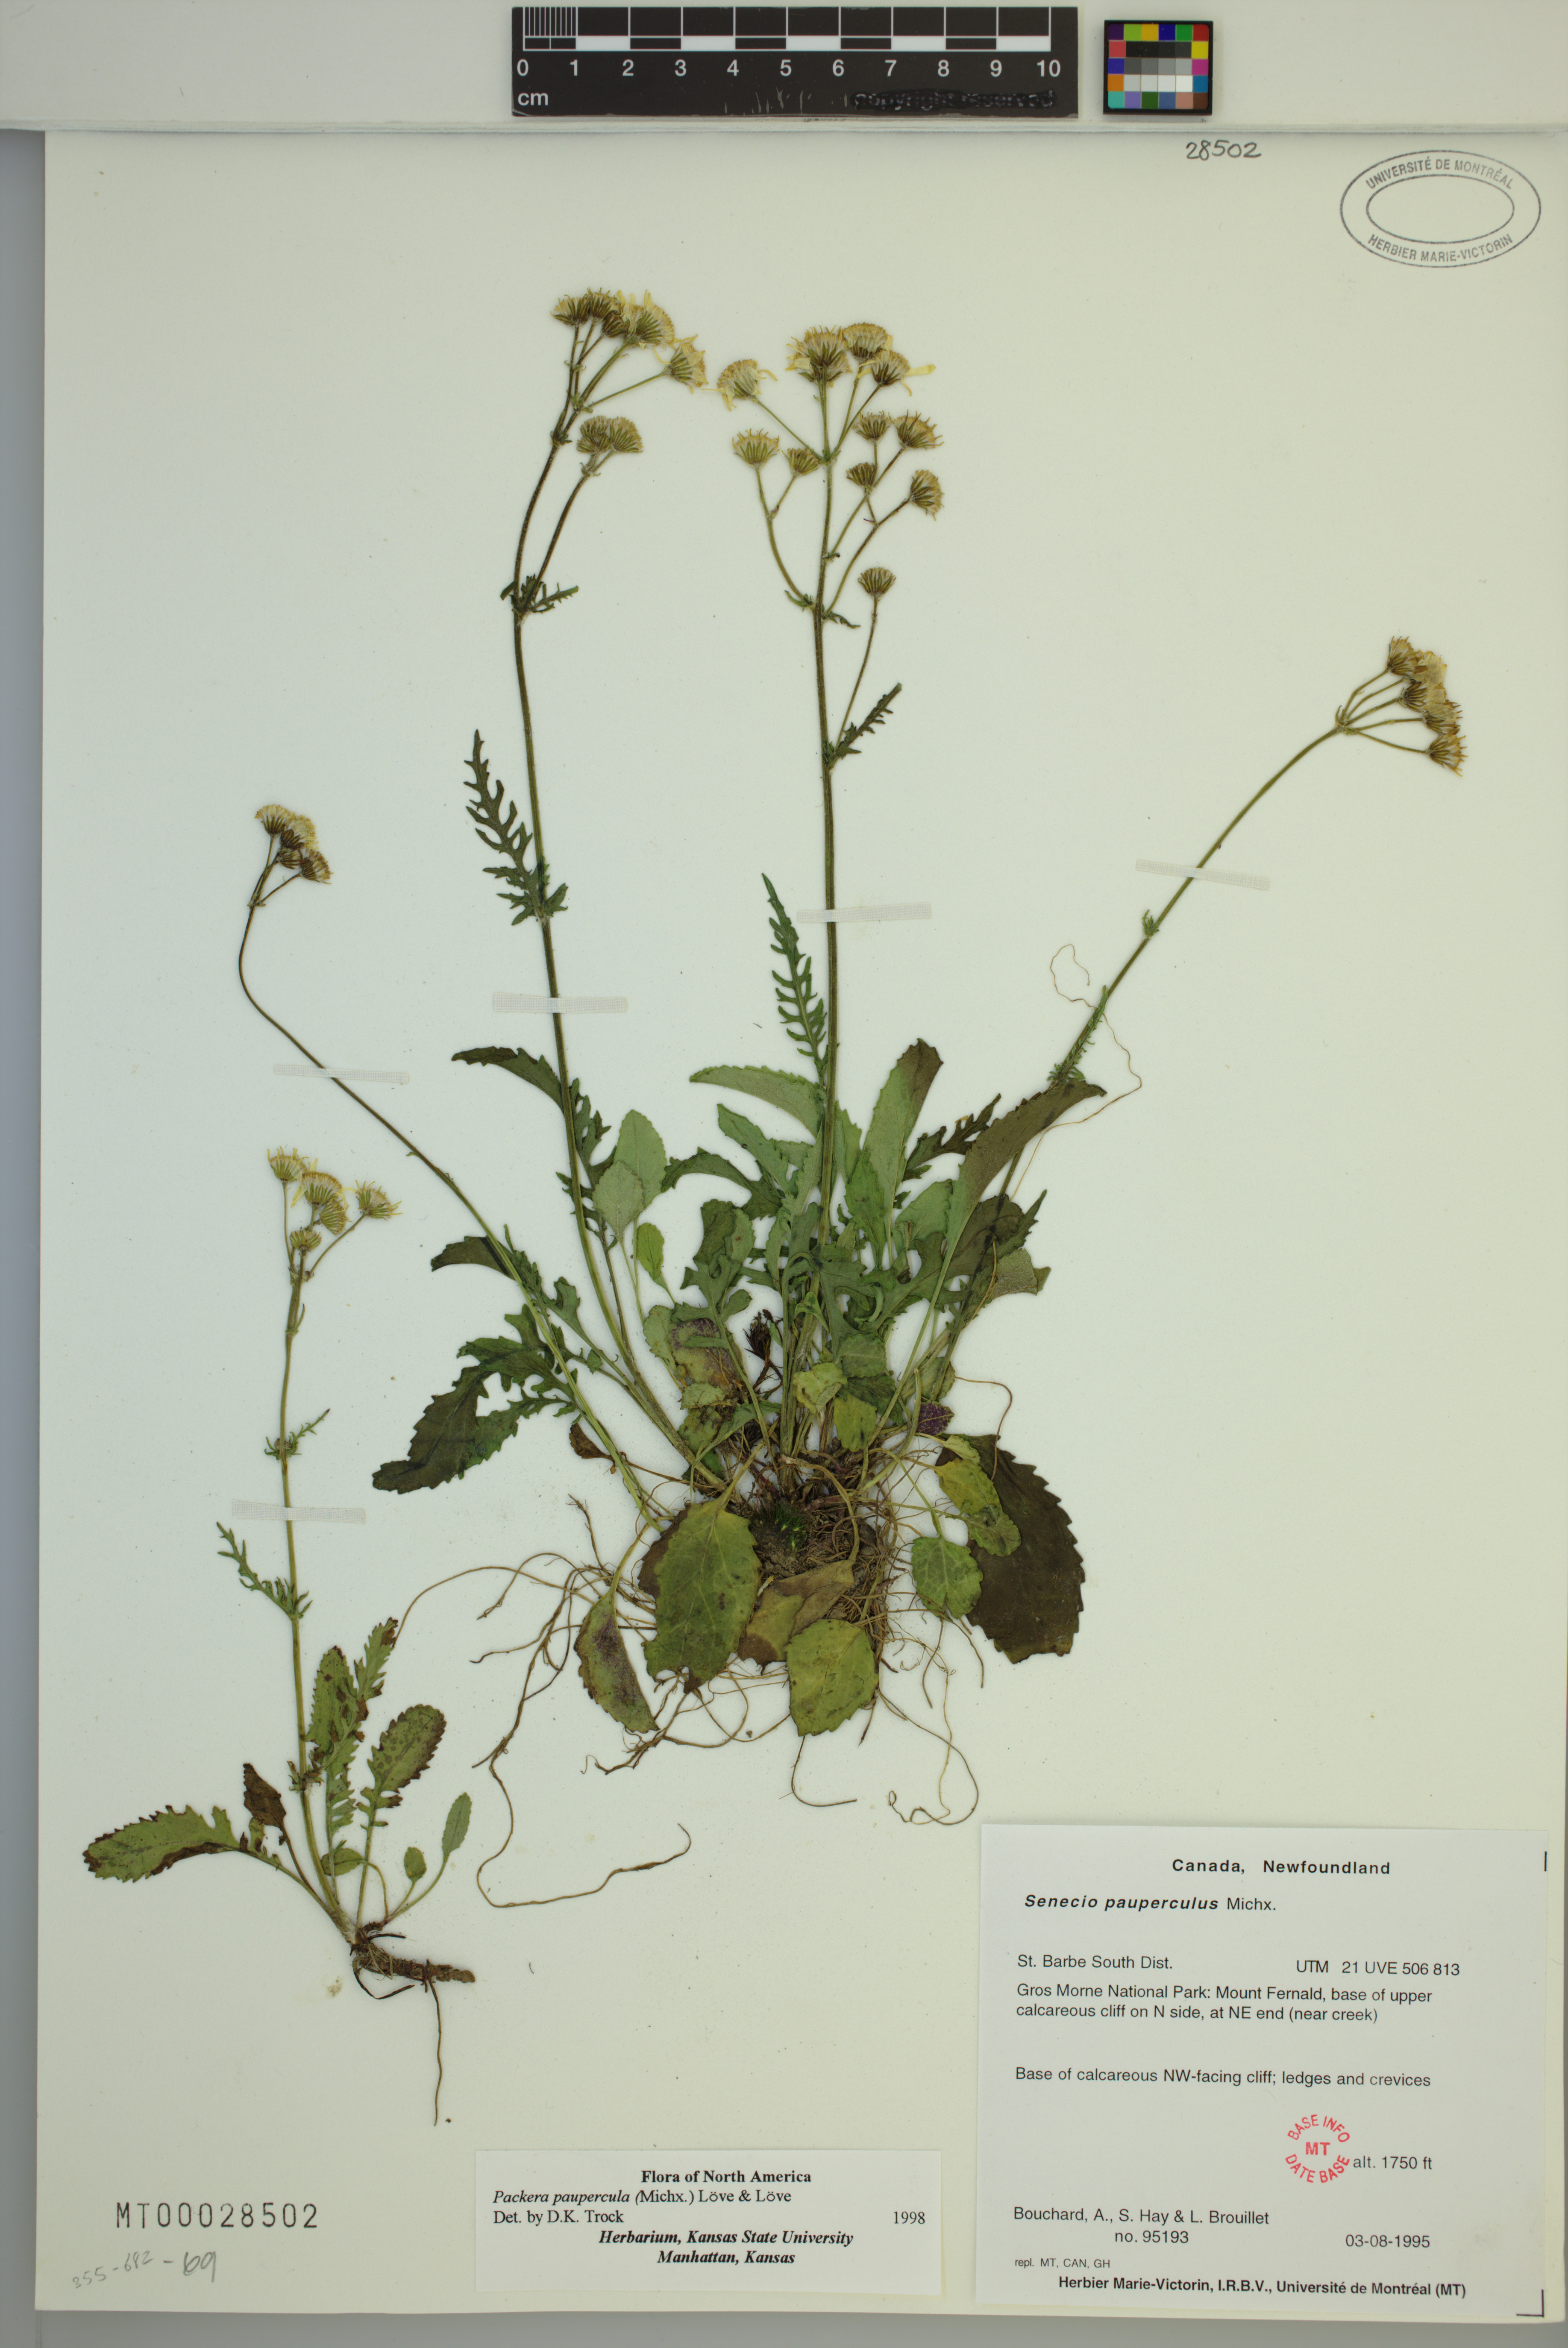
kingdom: Plantae
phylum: Tracheophyta
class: Magnoliopsida
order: Asterales
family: Asteraceae
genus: Packera
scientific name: Packera paupercula
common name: Balsam groundsel
